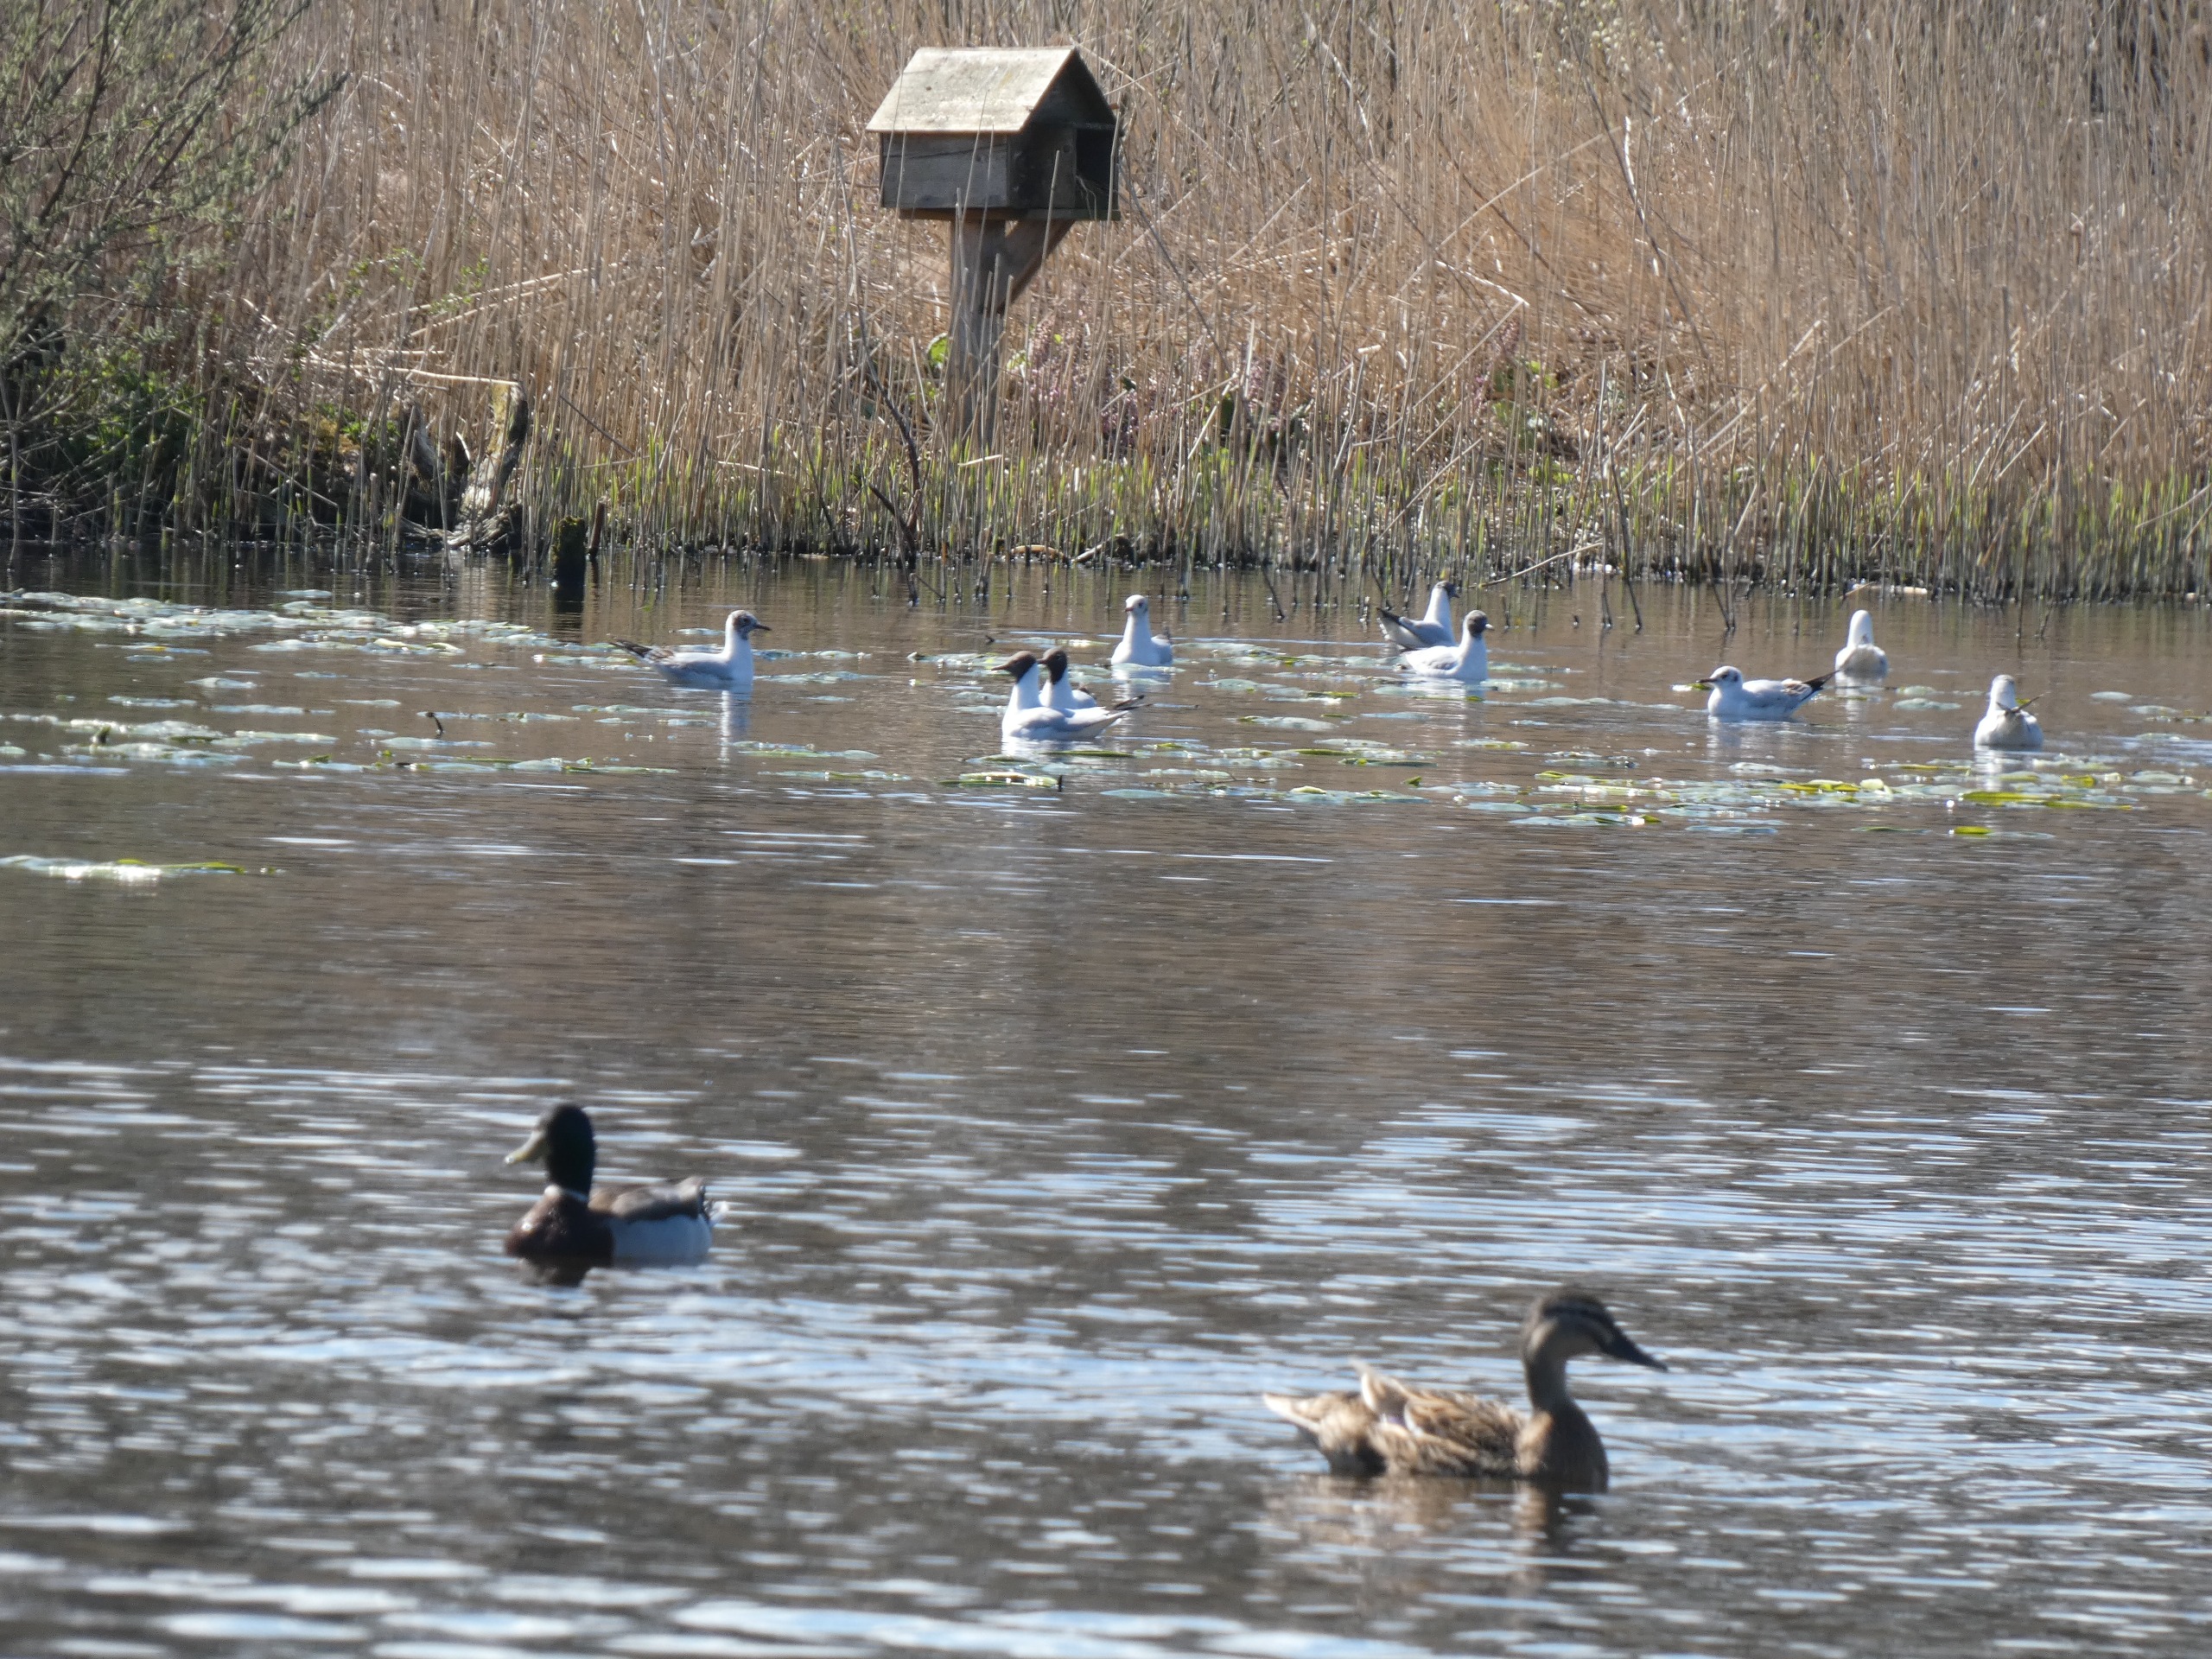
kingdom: Animalia
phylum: Chordata
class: Aves
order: Anseriformes
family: Anatidae
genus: Anas
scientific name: Anas platyrhynchos
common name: Gråand
